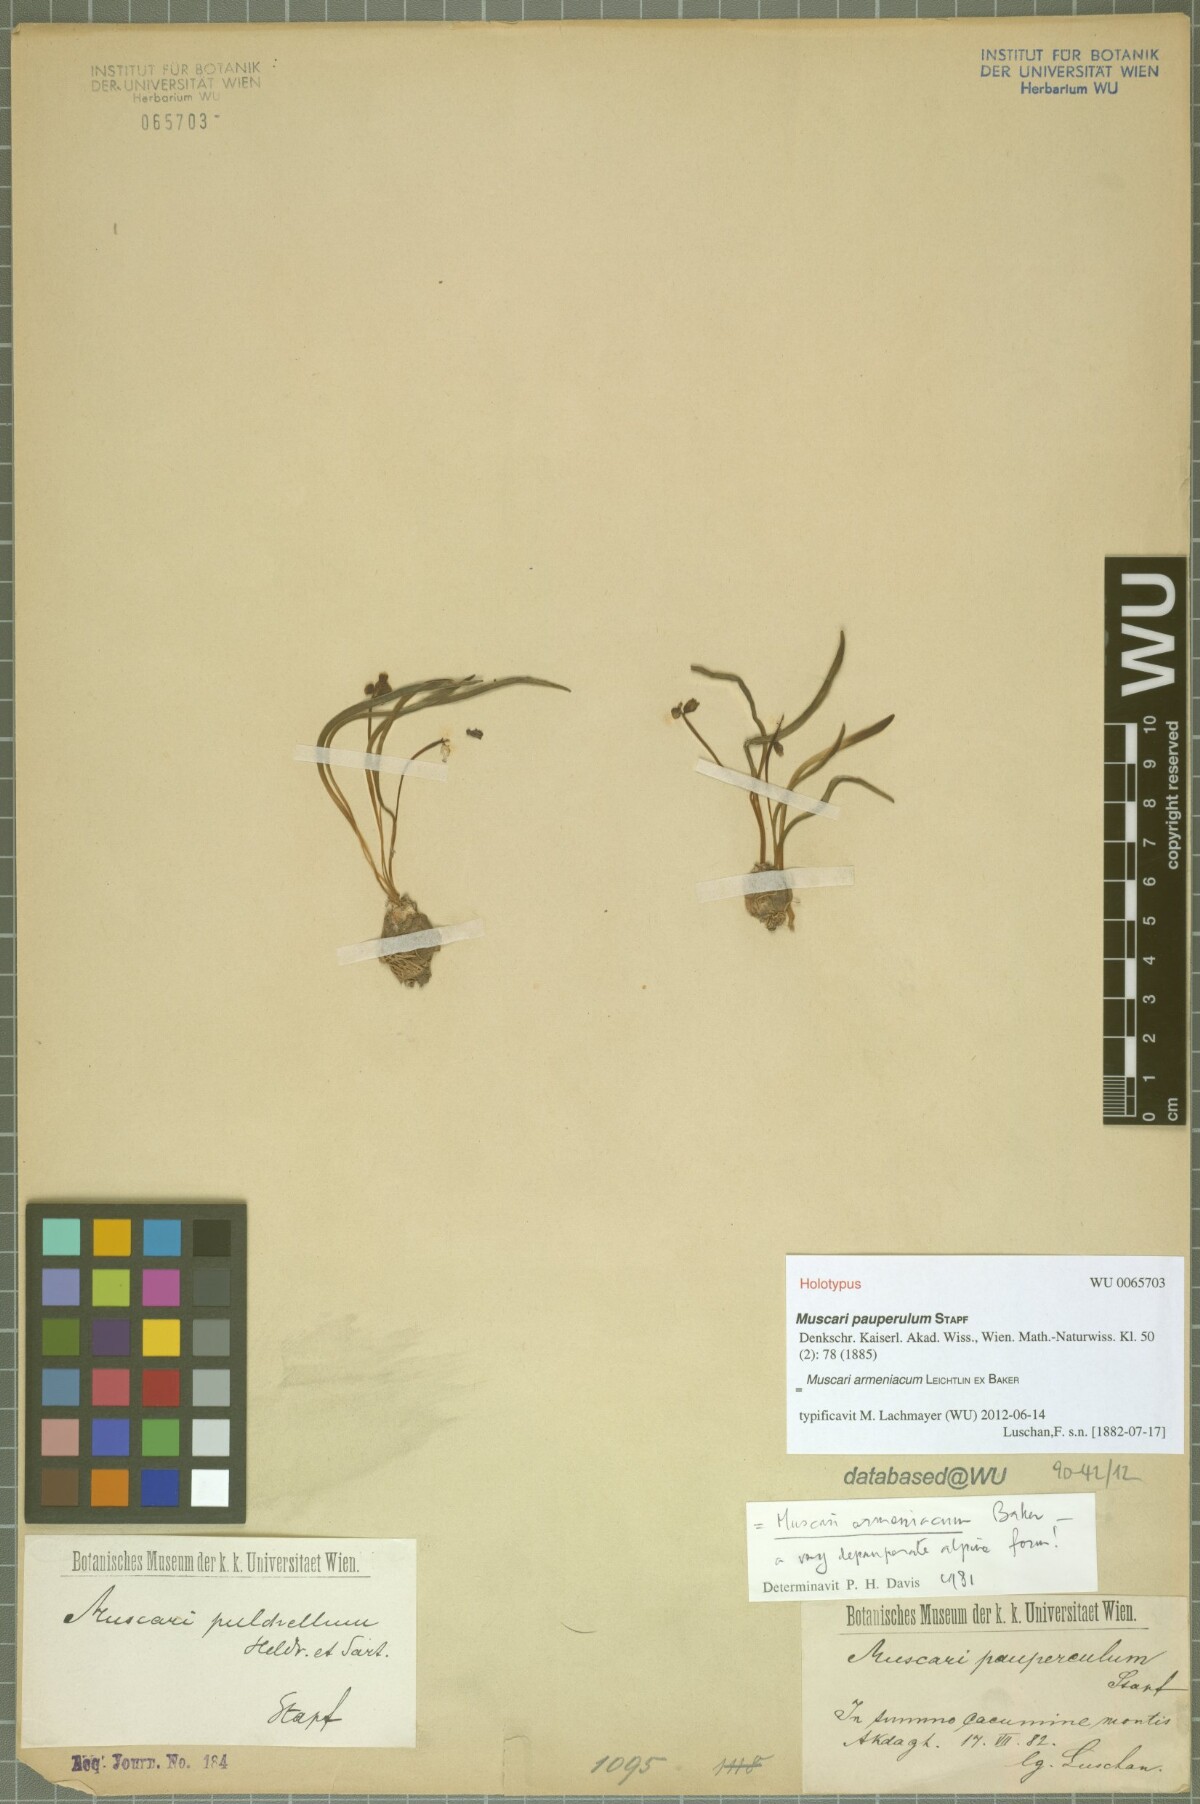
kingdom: Plantae
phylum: Tracheophyta
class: Liliopsida
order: Asparagales
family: Asparagaceae
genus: Muscari
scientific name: Muscari armeniacum
